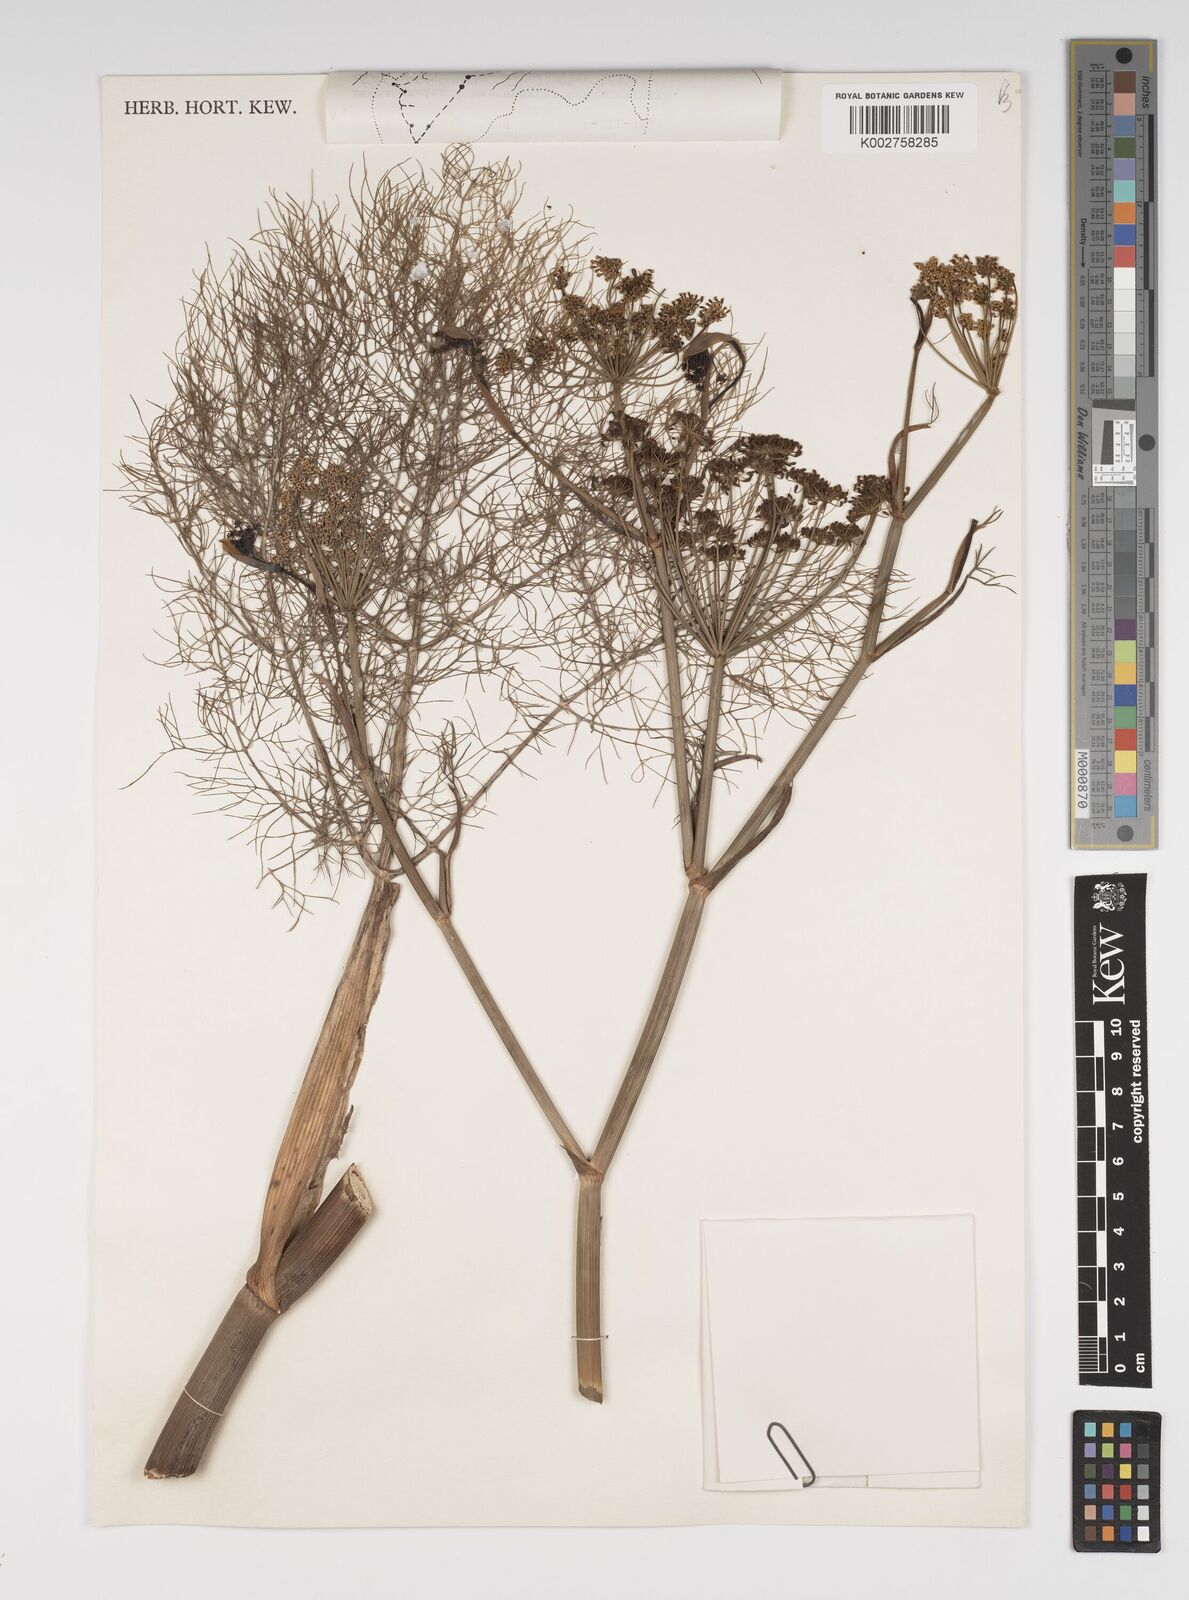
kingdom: Plantae
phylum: Tracheophyta
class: Magnoliopsida
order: Apiales
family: Apiaceae
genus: Foeniculum
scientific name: Foeniculum vulgare
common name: Fennel
